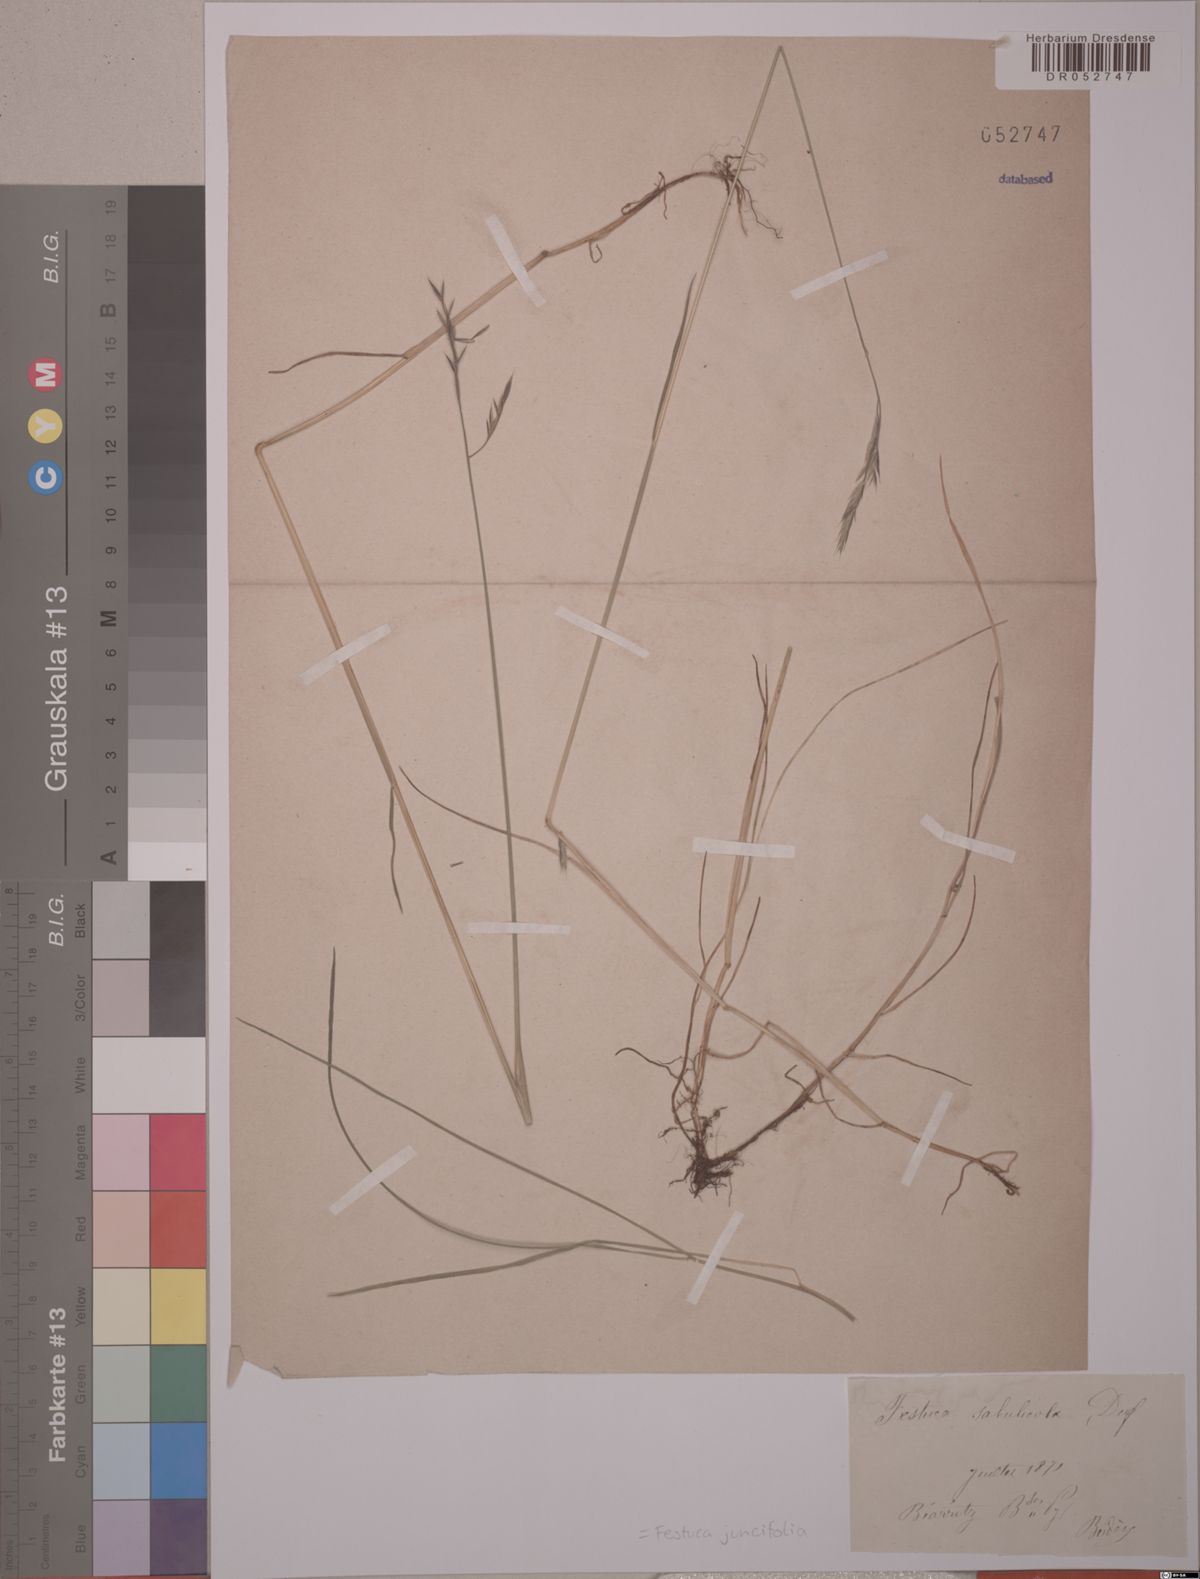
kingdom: Plantae
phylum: Tracheophyta
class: Liliopsida
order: Poales
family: Poaceae
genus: Festuca
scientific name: Festuca juncifolia
